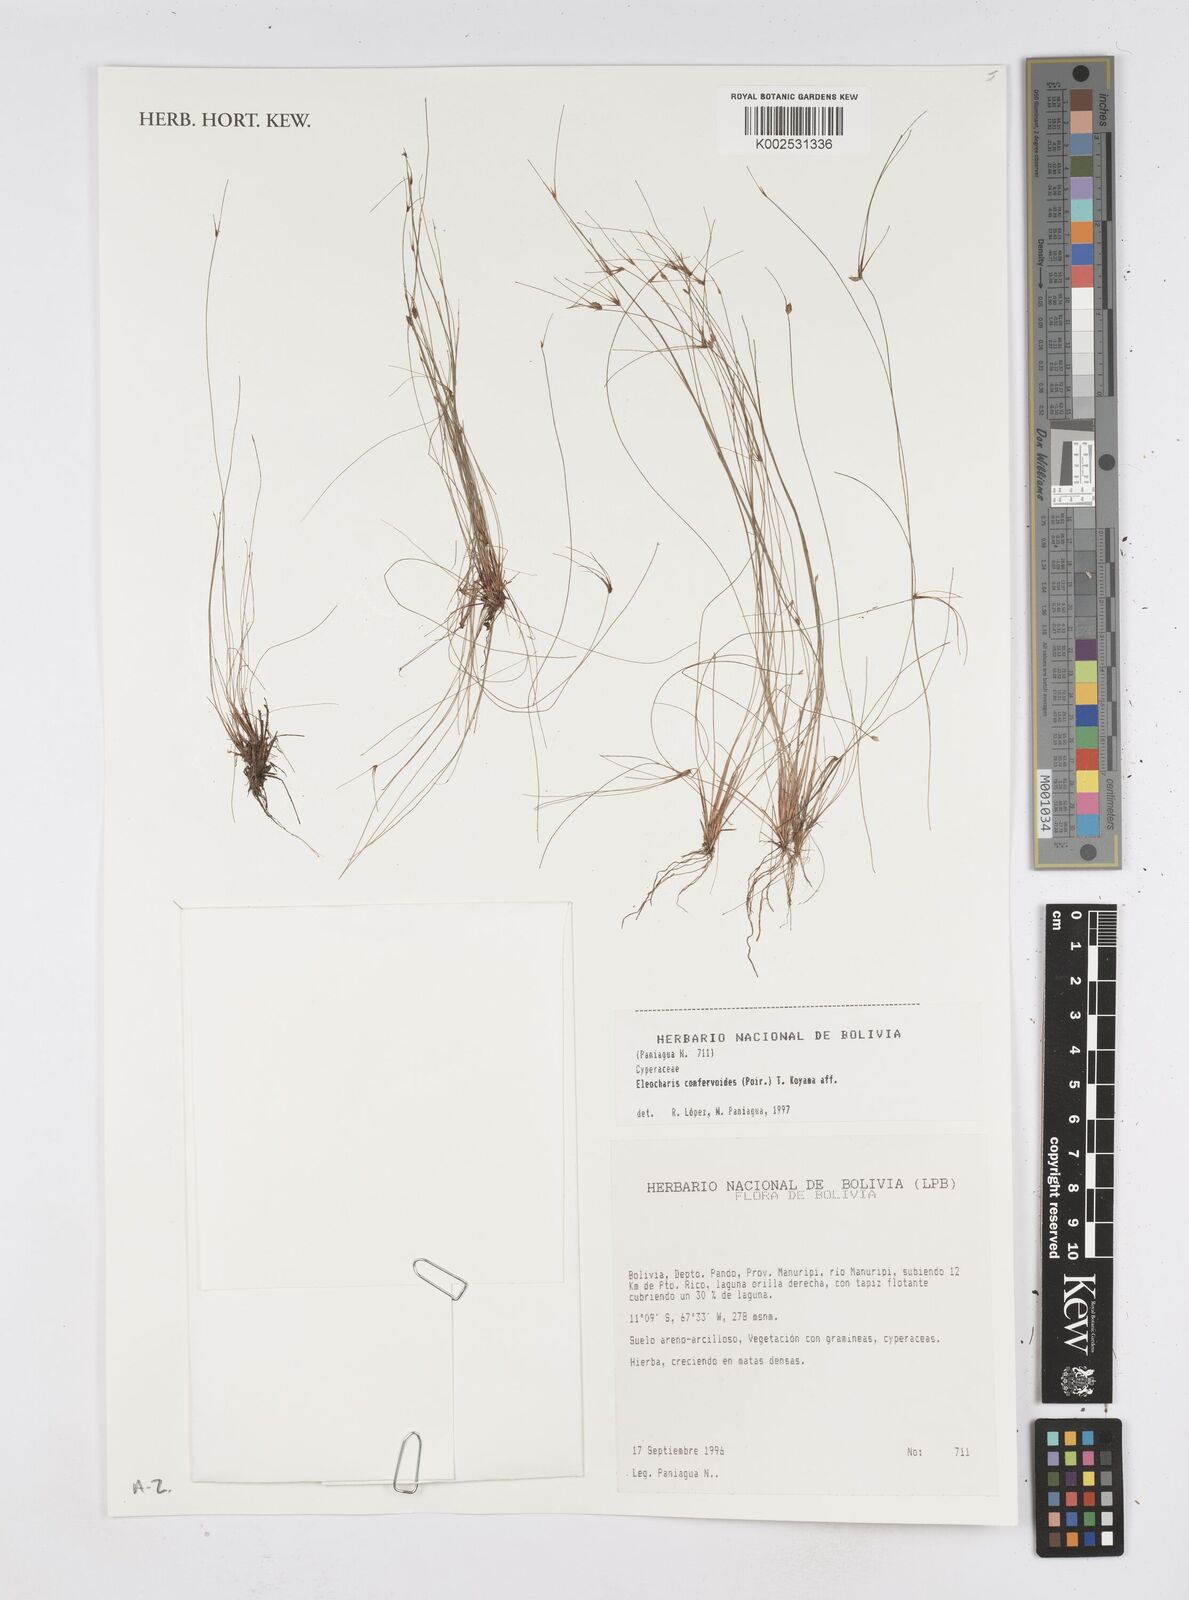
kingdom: Plantae
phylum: Tracheophyta
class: Liliopsida
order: Poales
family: Cyperaceae
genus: Eleocharis
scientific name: Eleocharis confervoides
